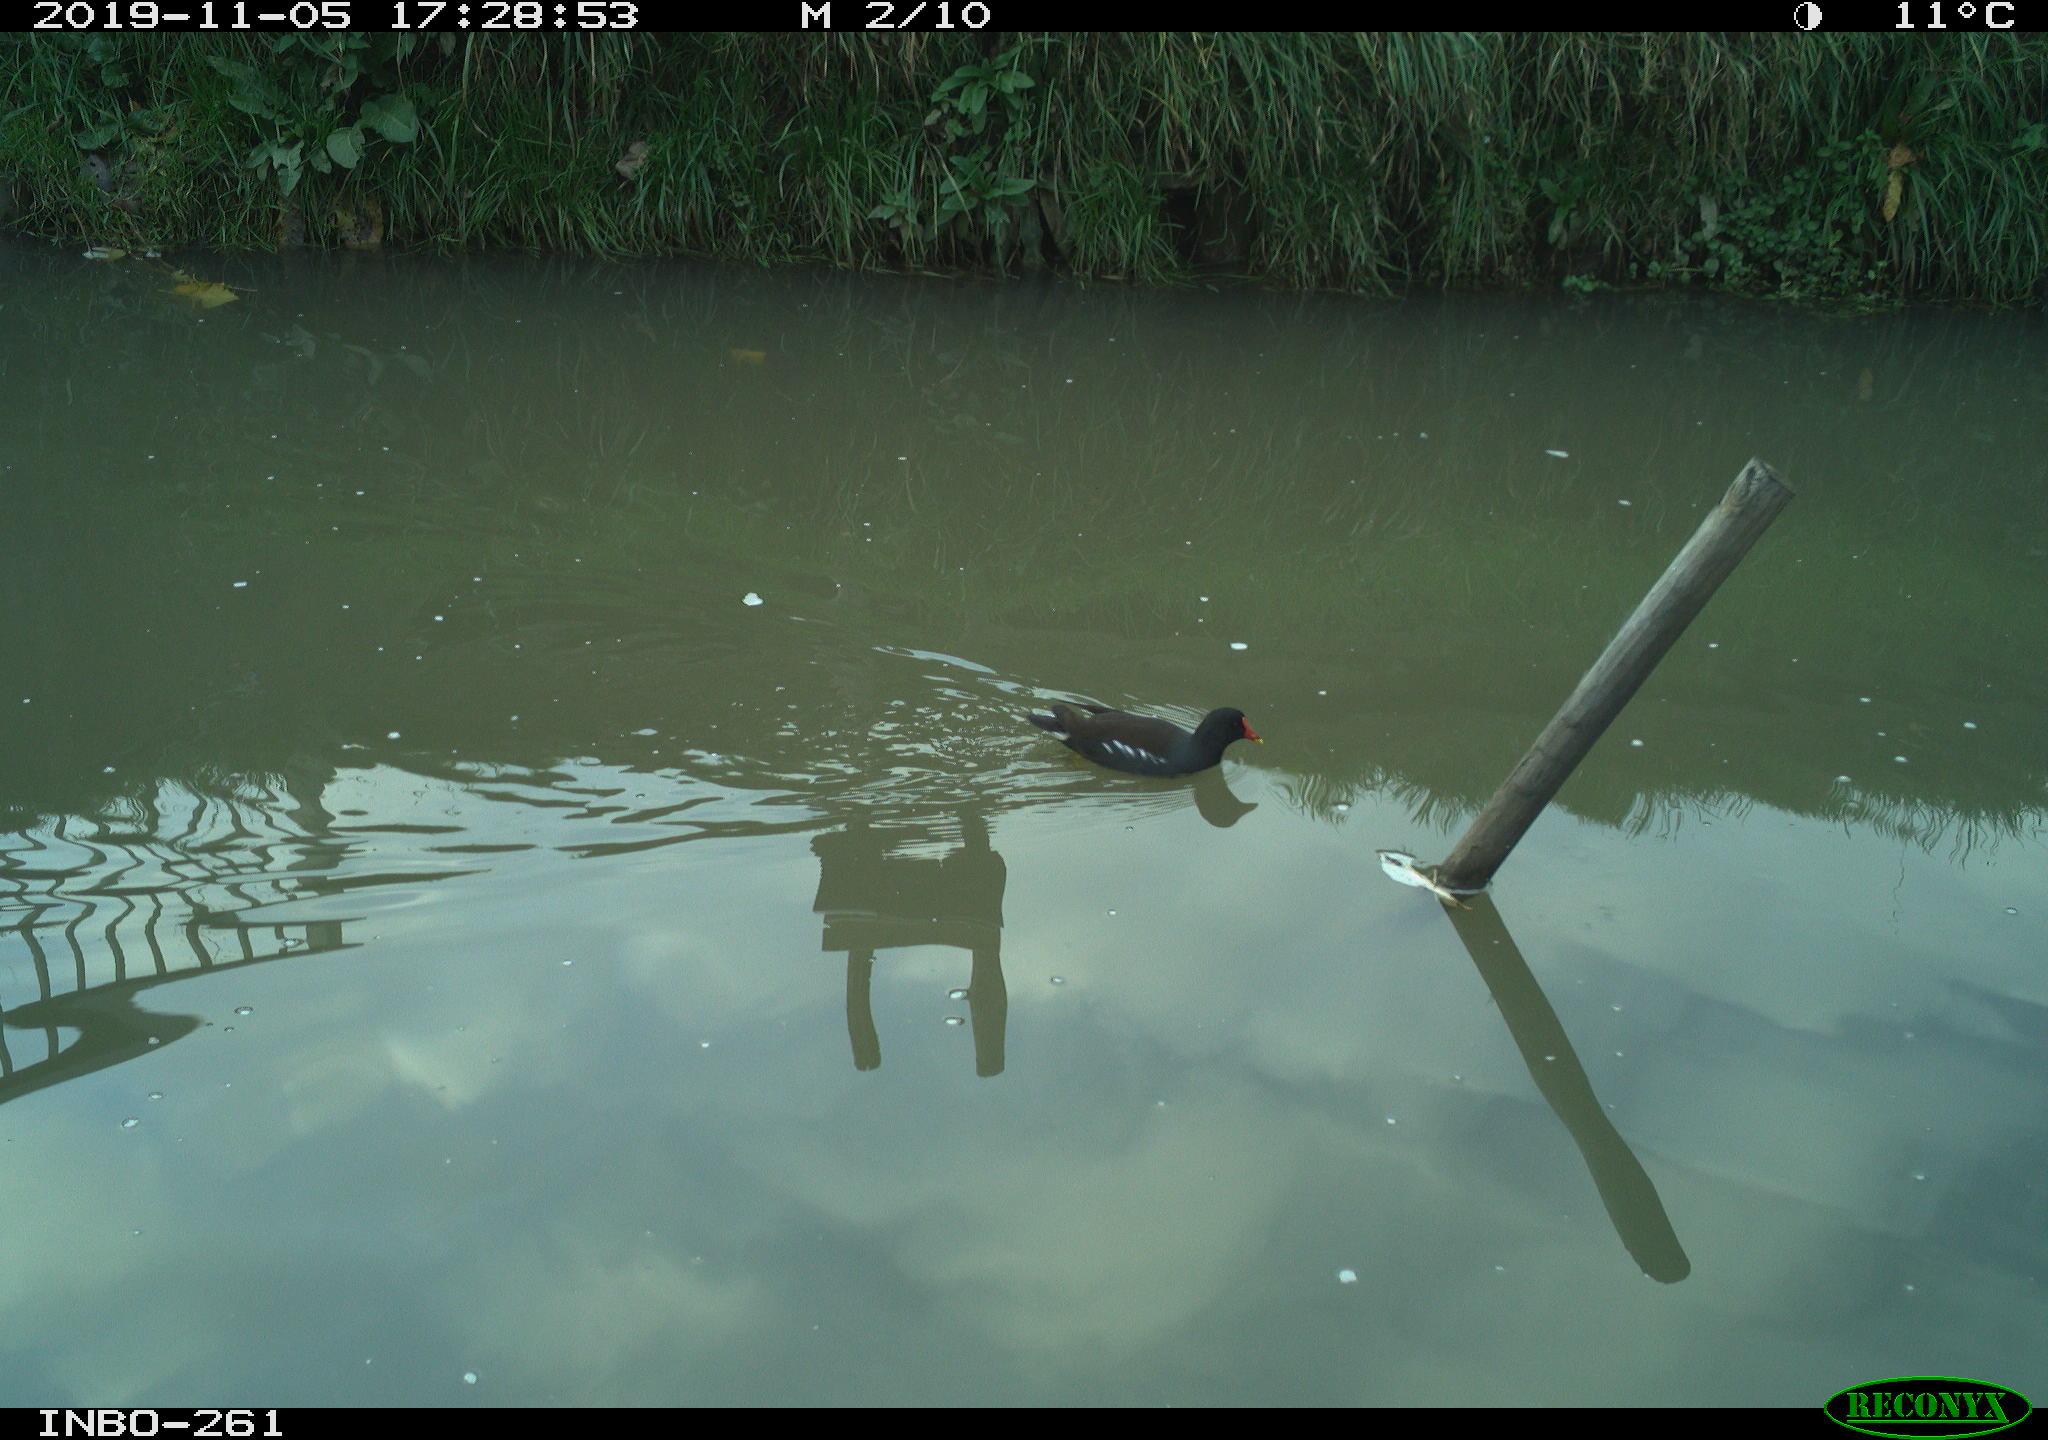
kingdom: Animalia
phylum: Chordata
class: Aves
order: Gruiformes
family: Rallidae
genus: Gallinula
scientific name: Gallinula chloropus
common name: Common moorhen
